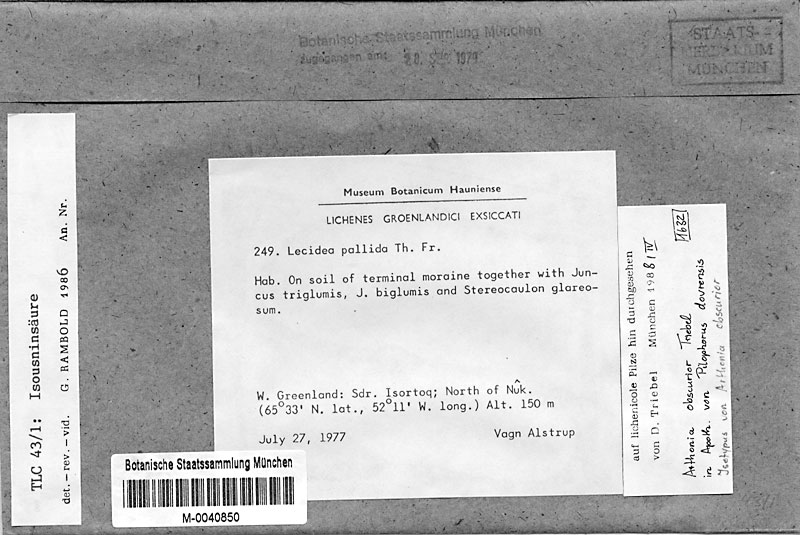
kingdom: Fungi
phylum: Ascomycota
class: Arthoniomycetes
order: Arthoniales
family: Arthoniaceae
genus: Arthonia
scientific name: Arthonia obscurior
